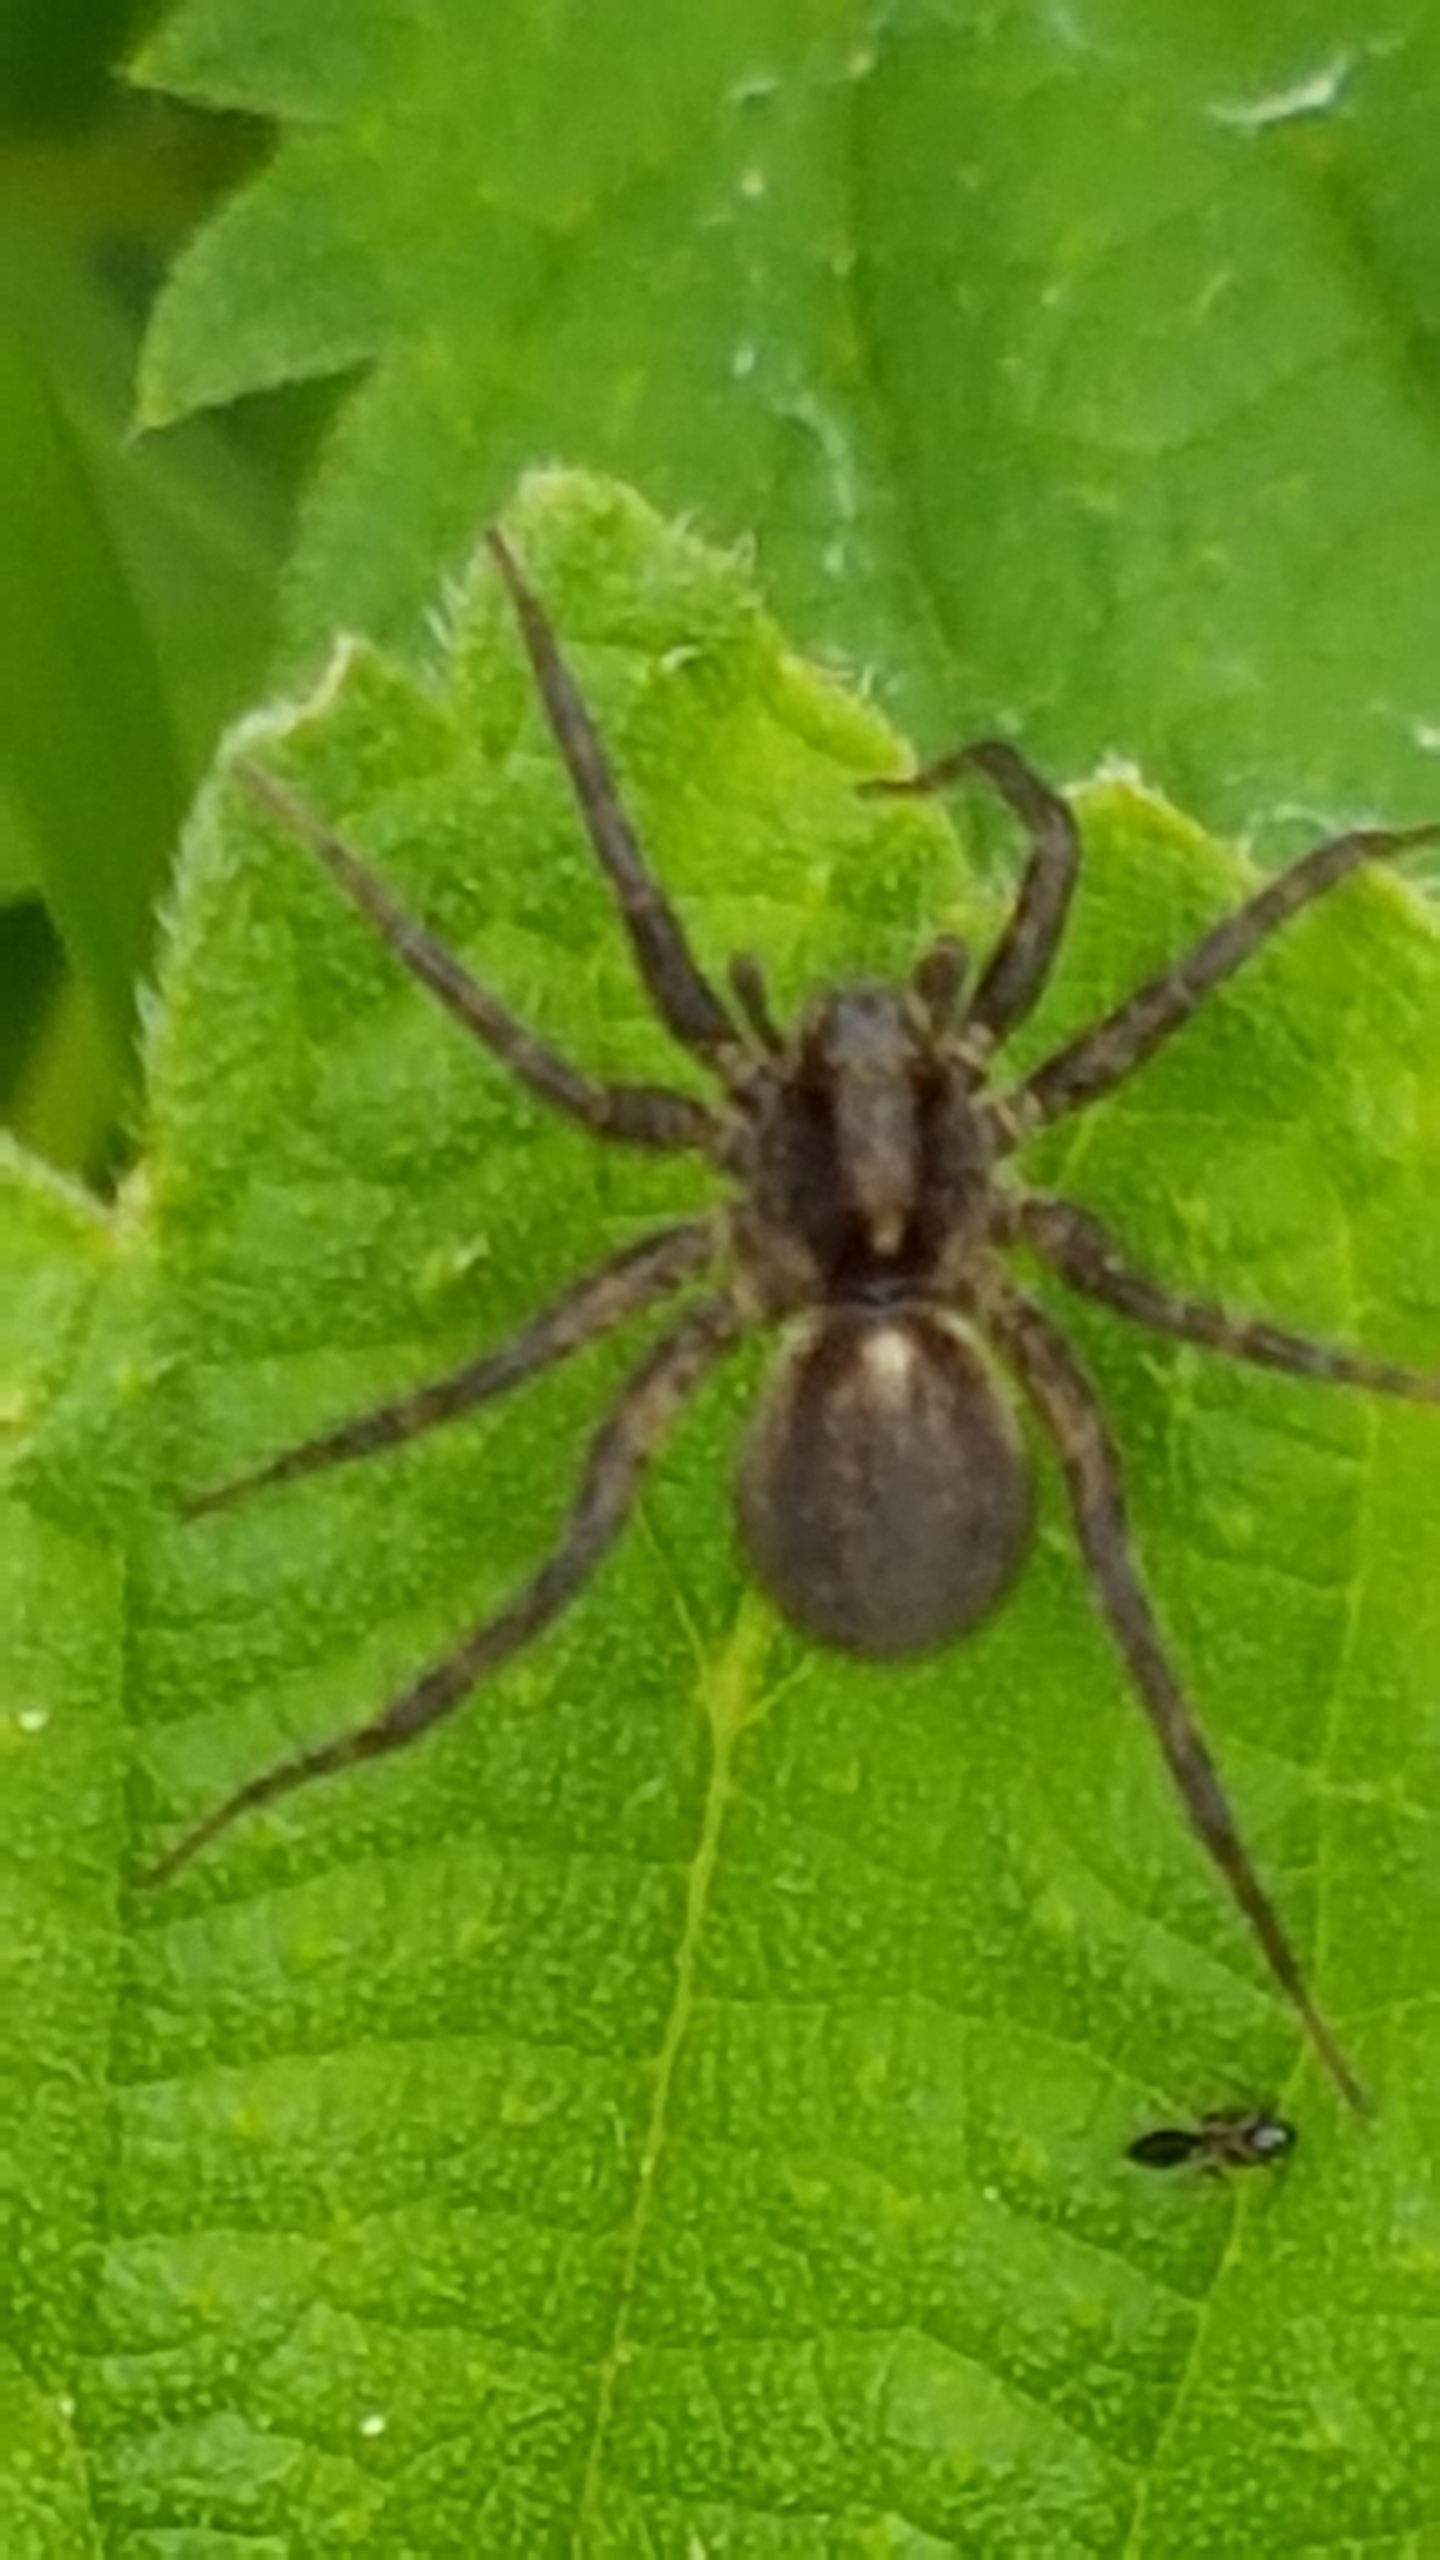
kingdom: Animalia
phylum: Arthropoda
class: Arachnida
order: Araneae
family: Lycosidae
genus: Pardosa
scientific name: Pardosa
